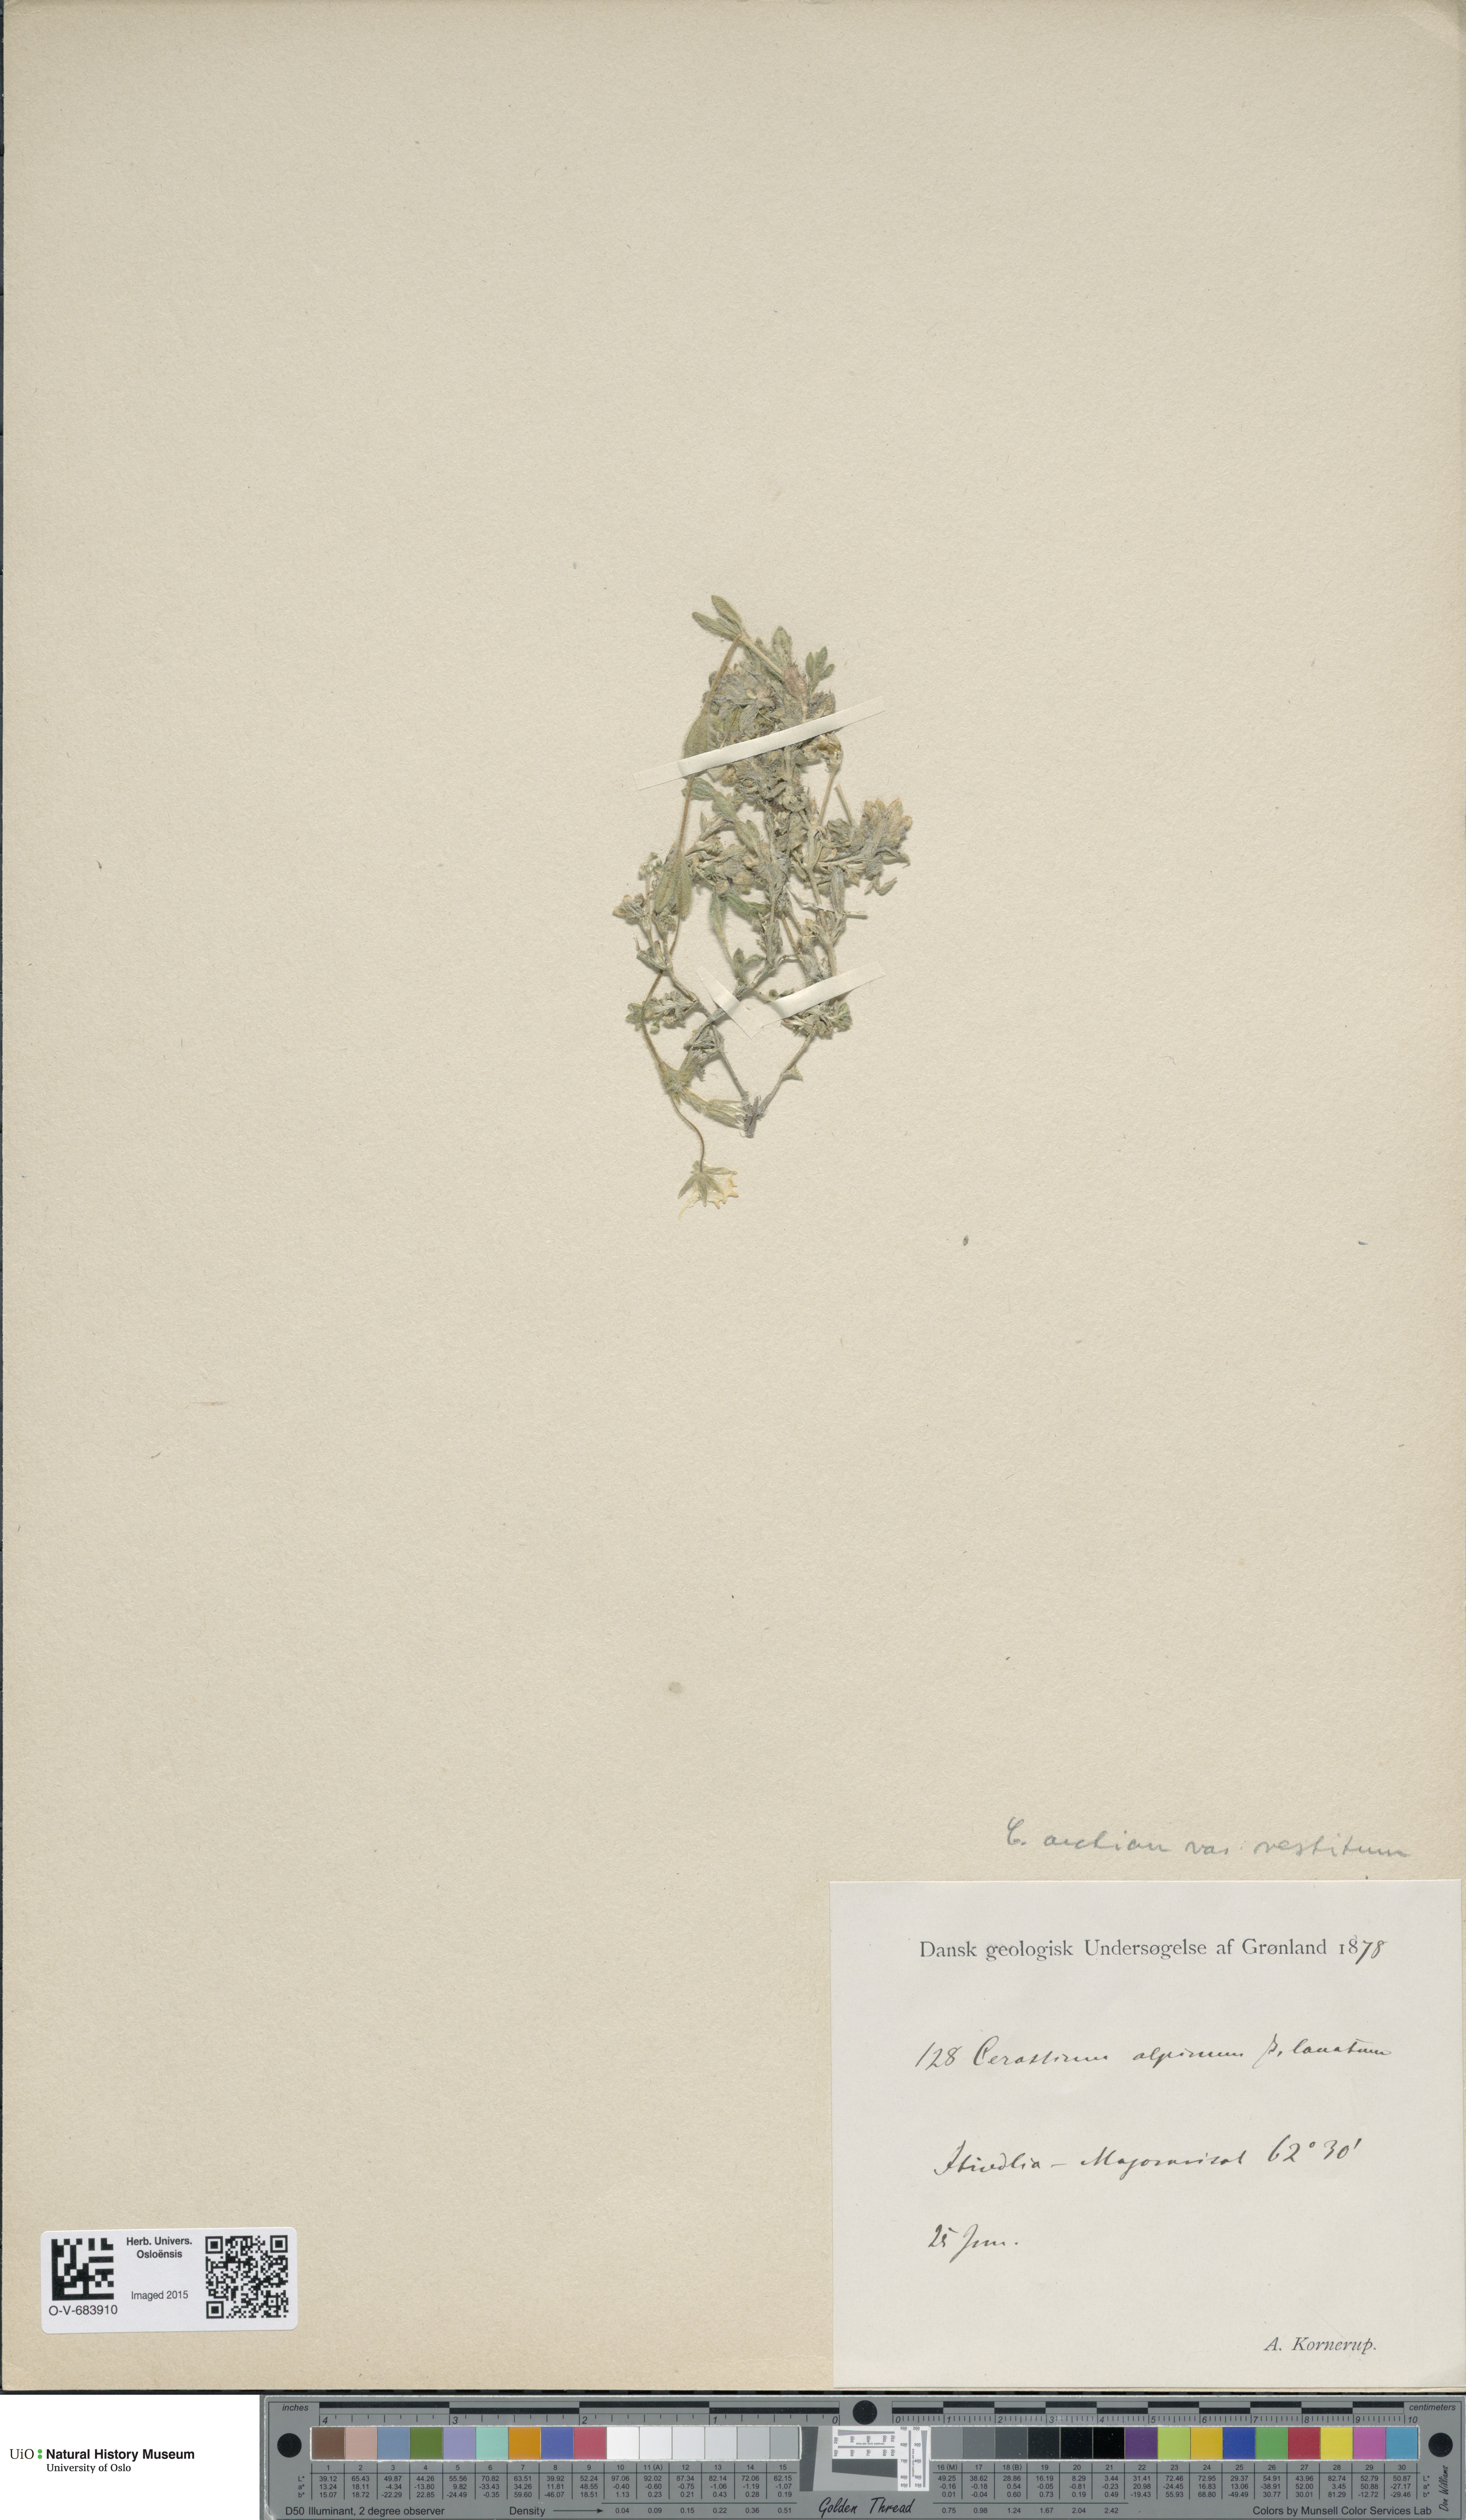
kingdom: Plantae
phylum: Tracheophyta
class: Magnoliopsida
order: Caryophyllales
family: Caryophyllaceae
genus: Cerastium
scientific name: Cerastium arcticum
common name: Arctic mouse-ear
